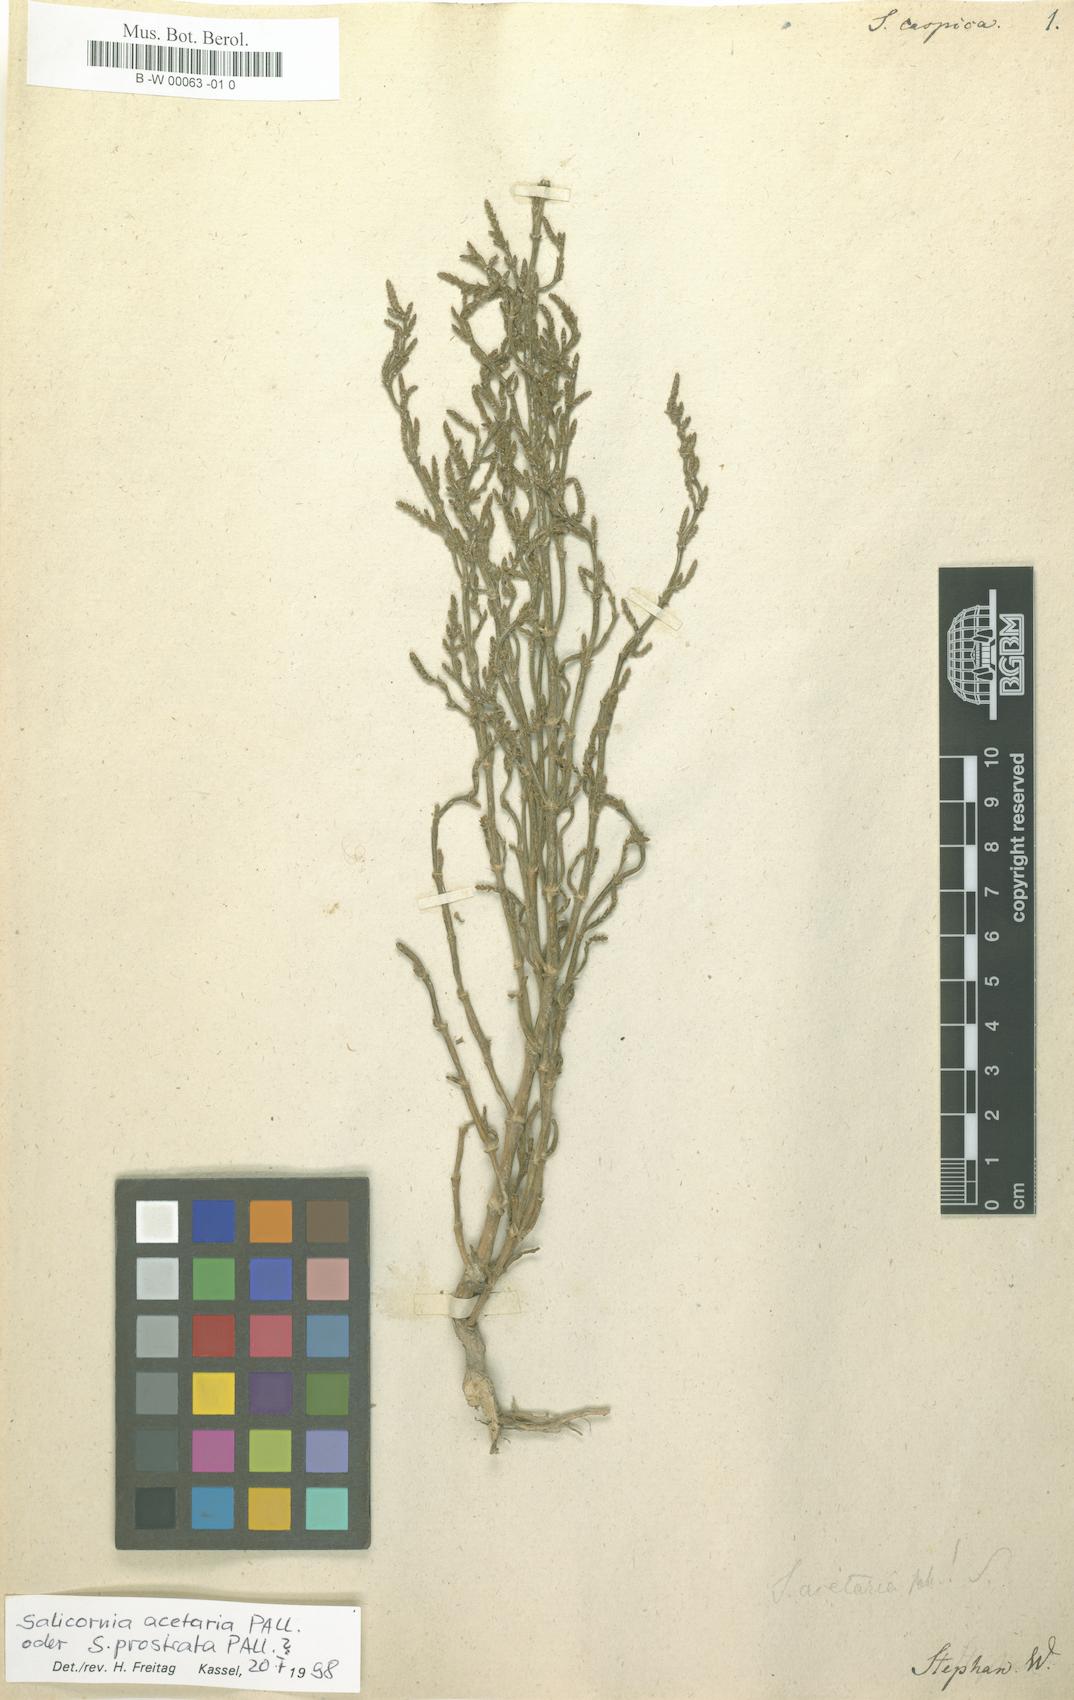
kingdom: Plantae
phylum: Tracheophyta
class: Magnoliopsida
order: Caryophyllales
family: Amaranthaceae
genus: Halostachys
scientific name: Halostachys caspica
